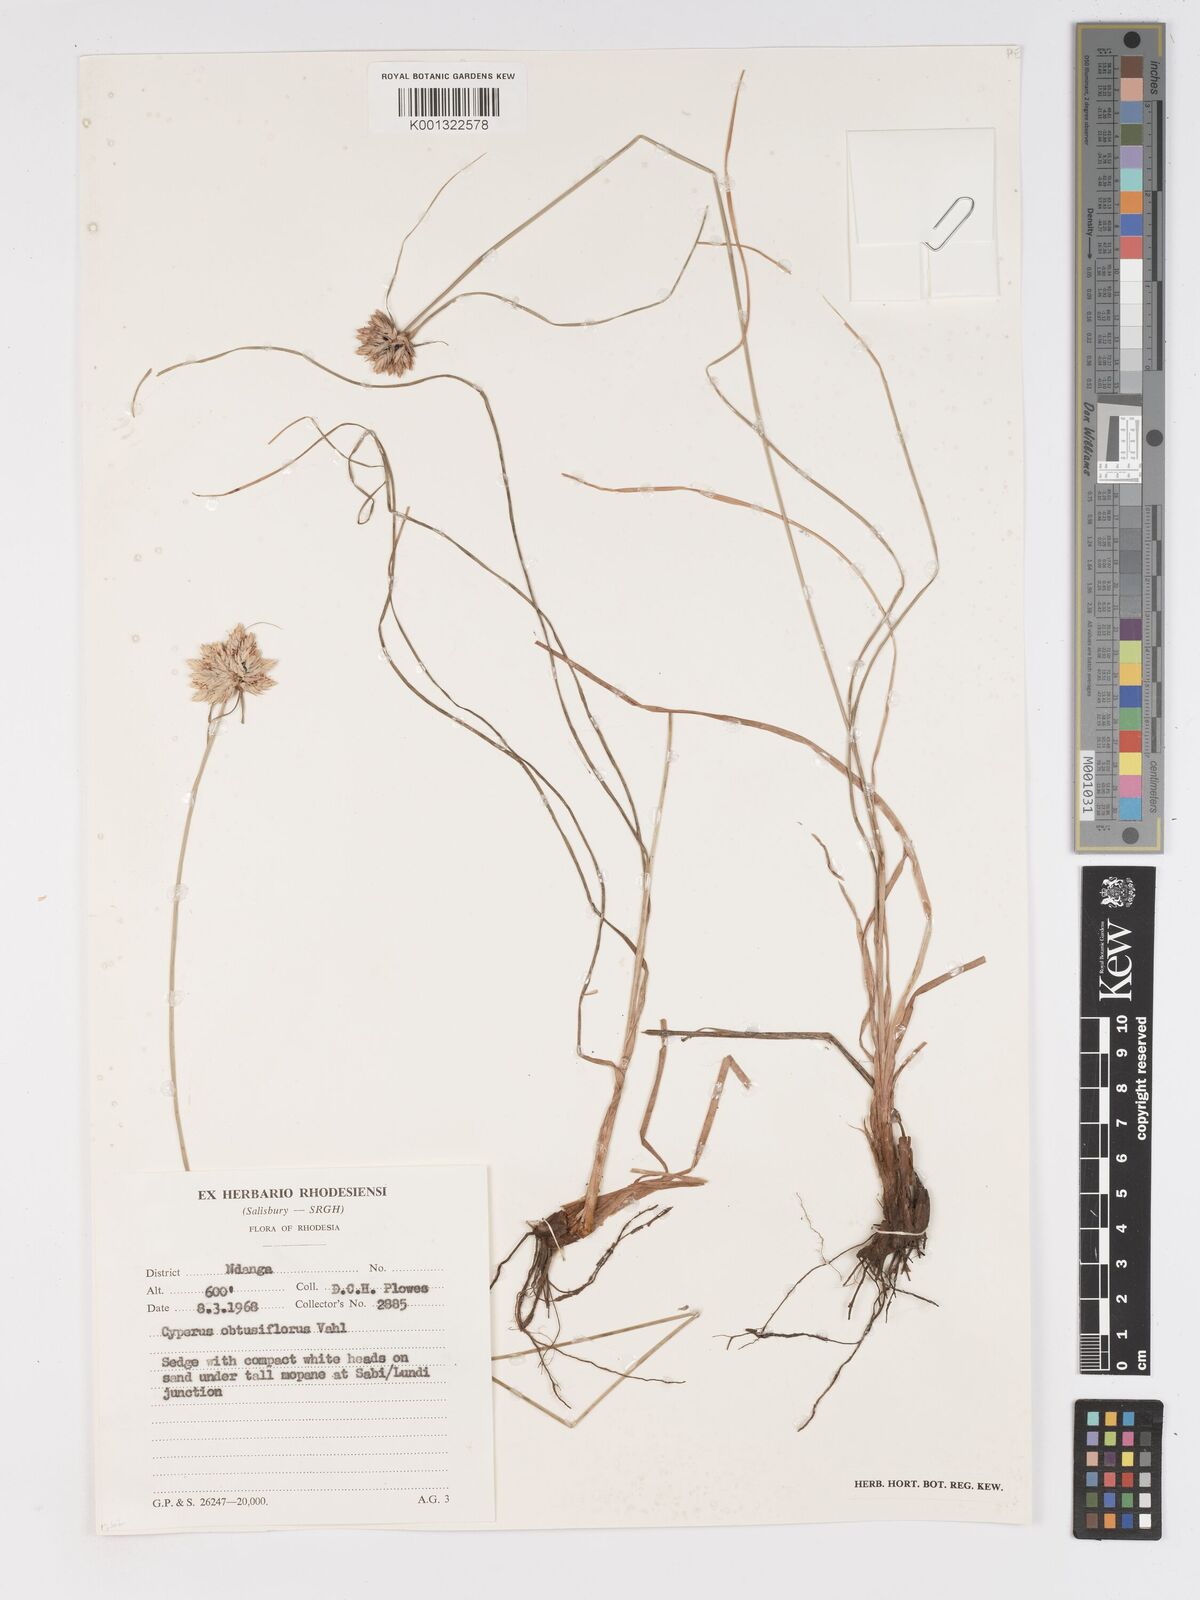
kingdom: Plantae
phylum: Tracheophyta
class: Liliopsida
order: Poales
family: Cyperaceae
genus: Cyperus
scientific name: Cyperus niveus
